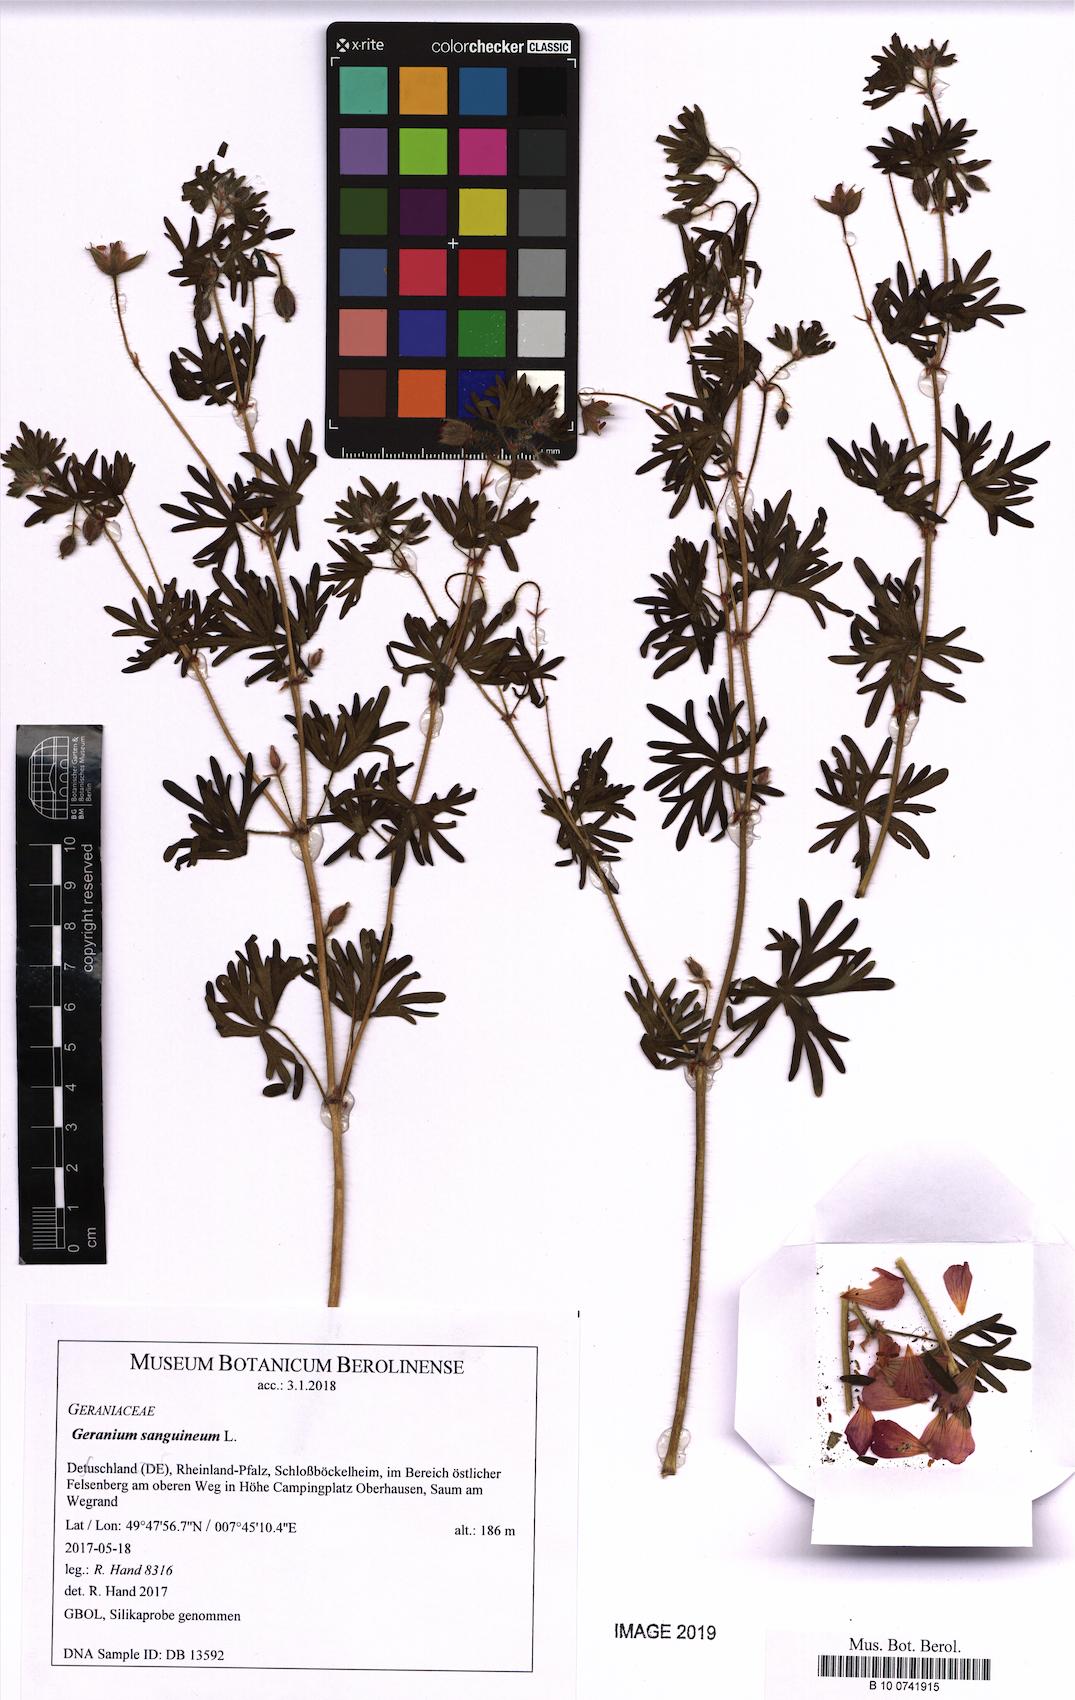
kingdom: Plantae
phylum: Tracheophyta
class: Magnoliopsida
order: Geraniales
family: Geraniaceae
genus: Geranium
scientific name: Geranium sanguineum
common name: Bloody crane's-bill
